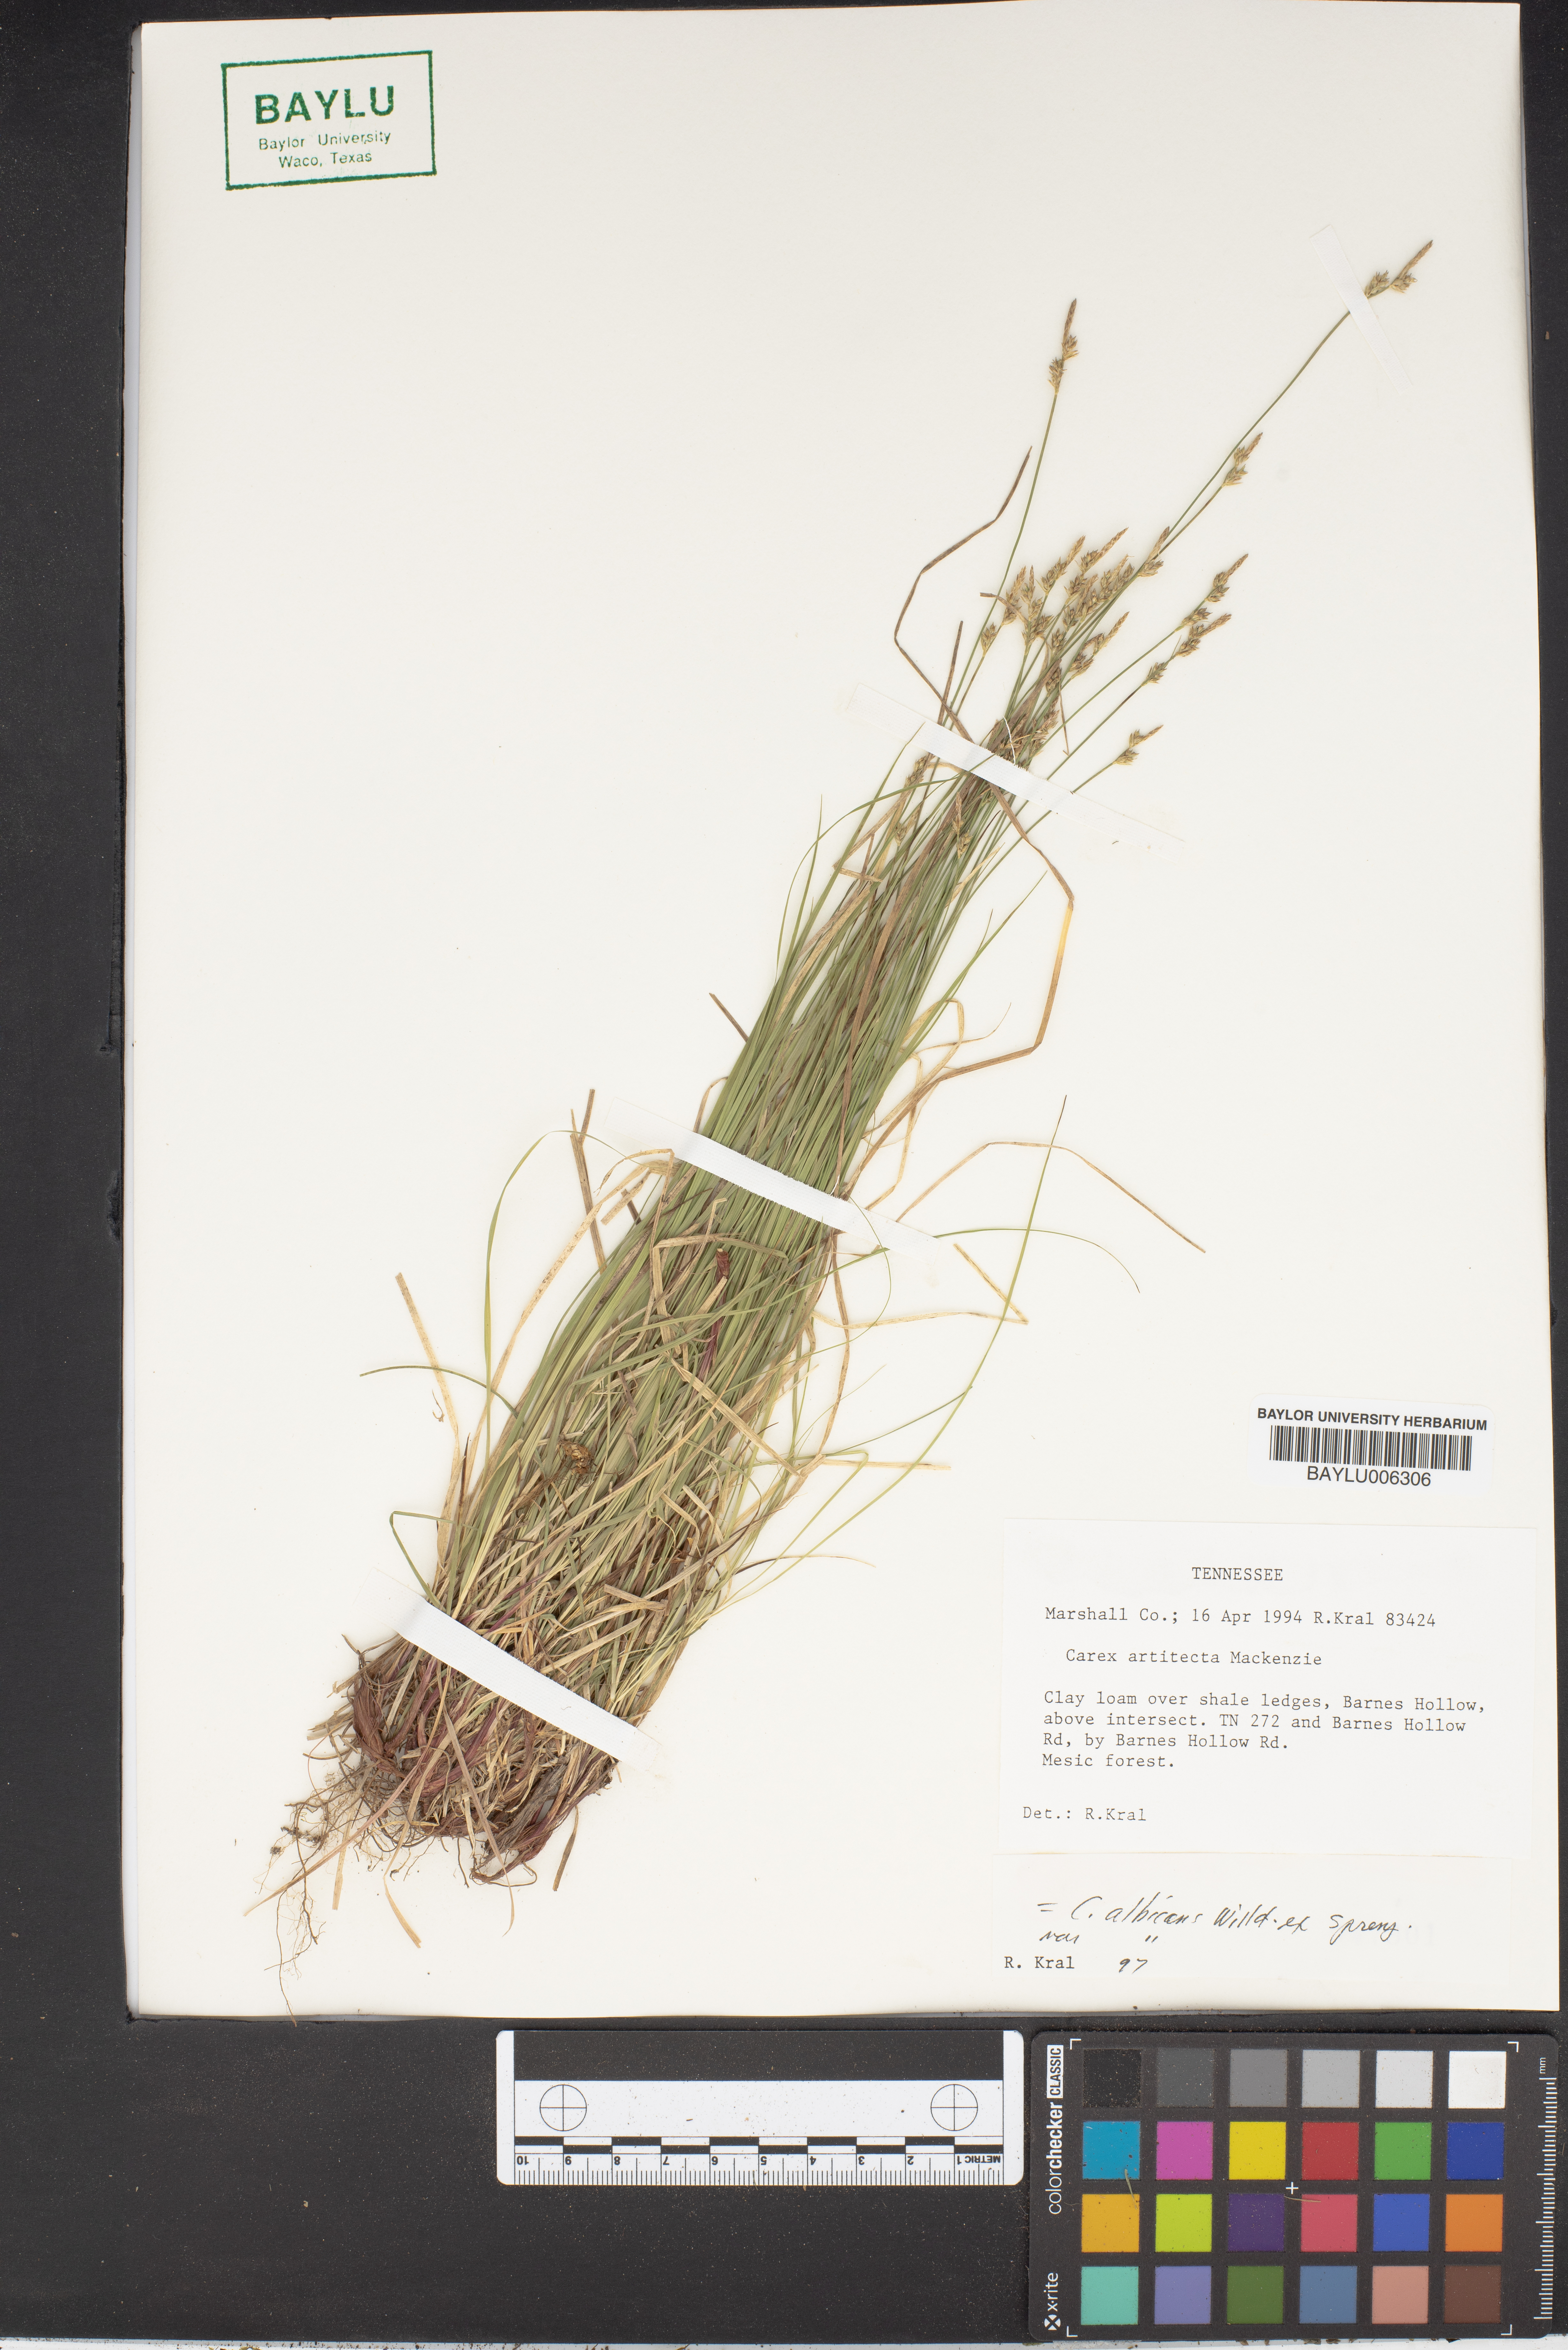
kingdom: Plantae
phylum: Tracheophyta
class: Liliopsida
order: Poales
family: Cyperaceae
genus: Carex
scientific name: Carex albicans
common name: Bellow-beaked sedge
